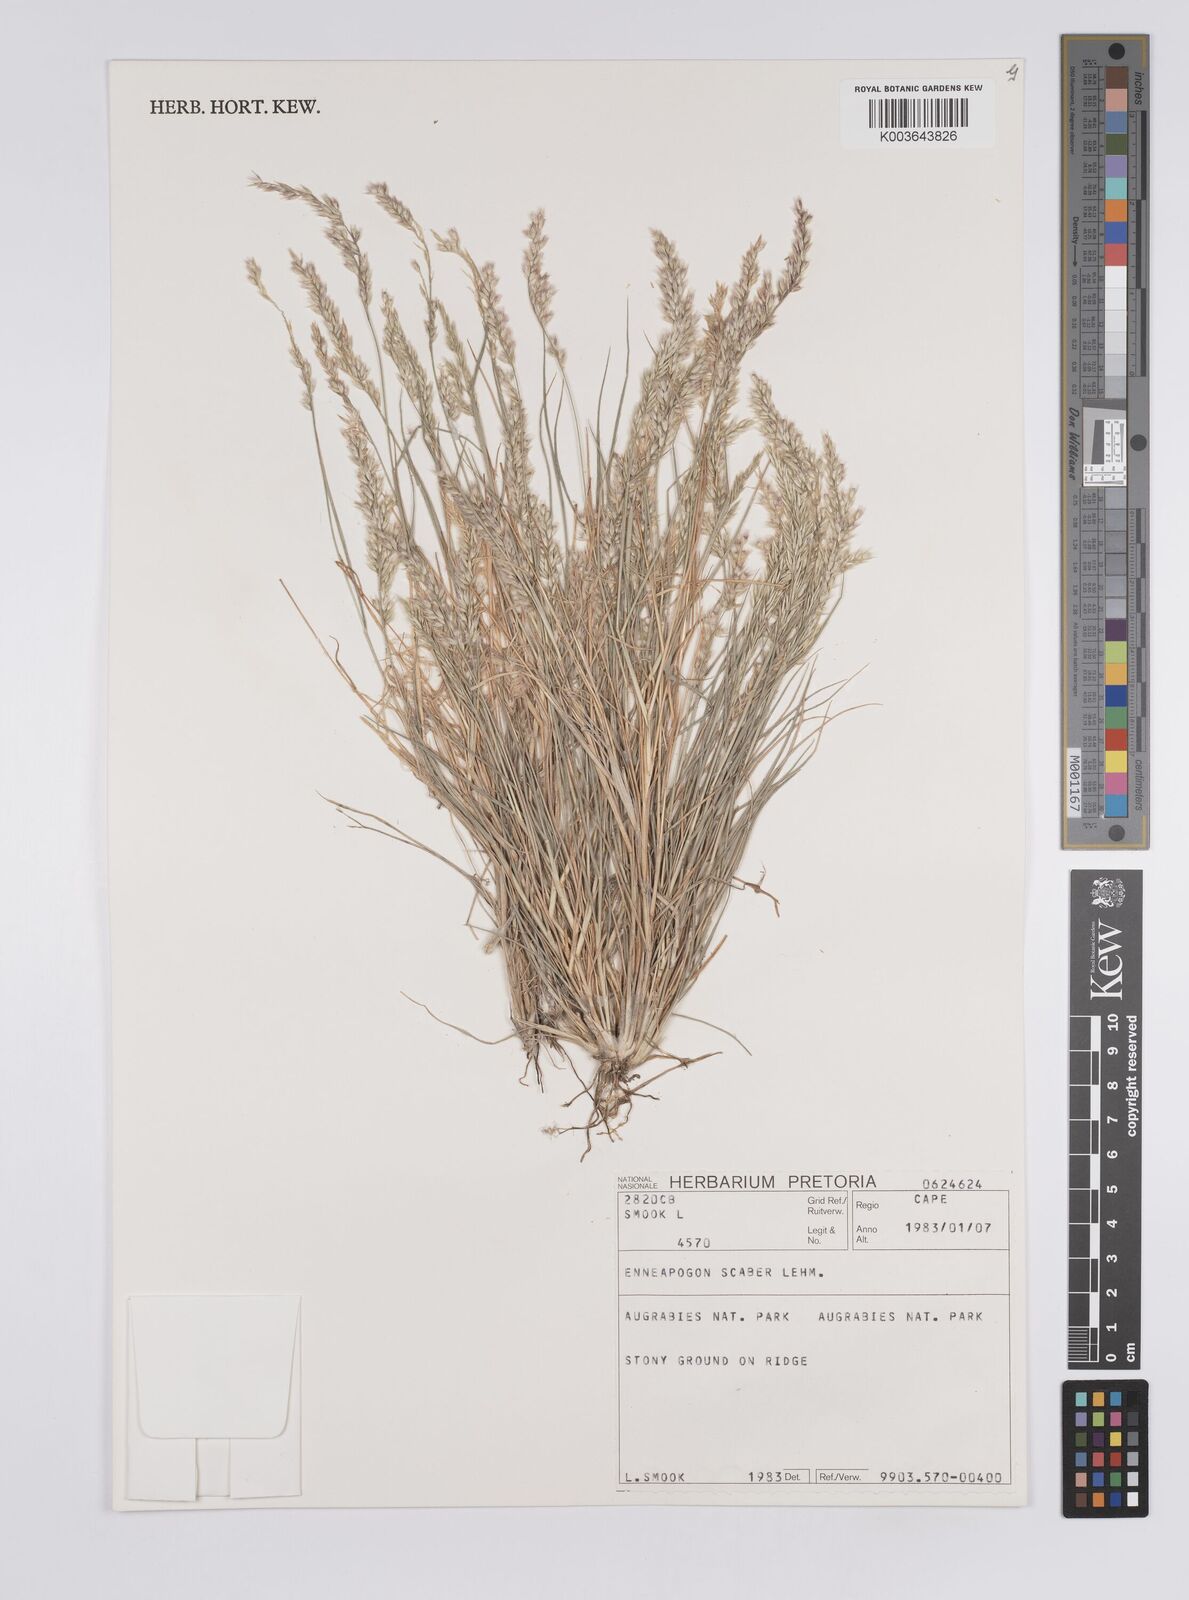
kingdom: Plantae
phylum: Tracheophyta
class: Liliopsida
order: Poales
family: Poaceae
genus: Enneapogon
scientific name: Enneapogon scaber
